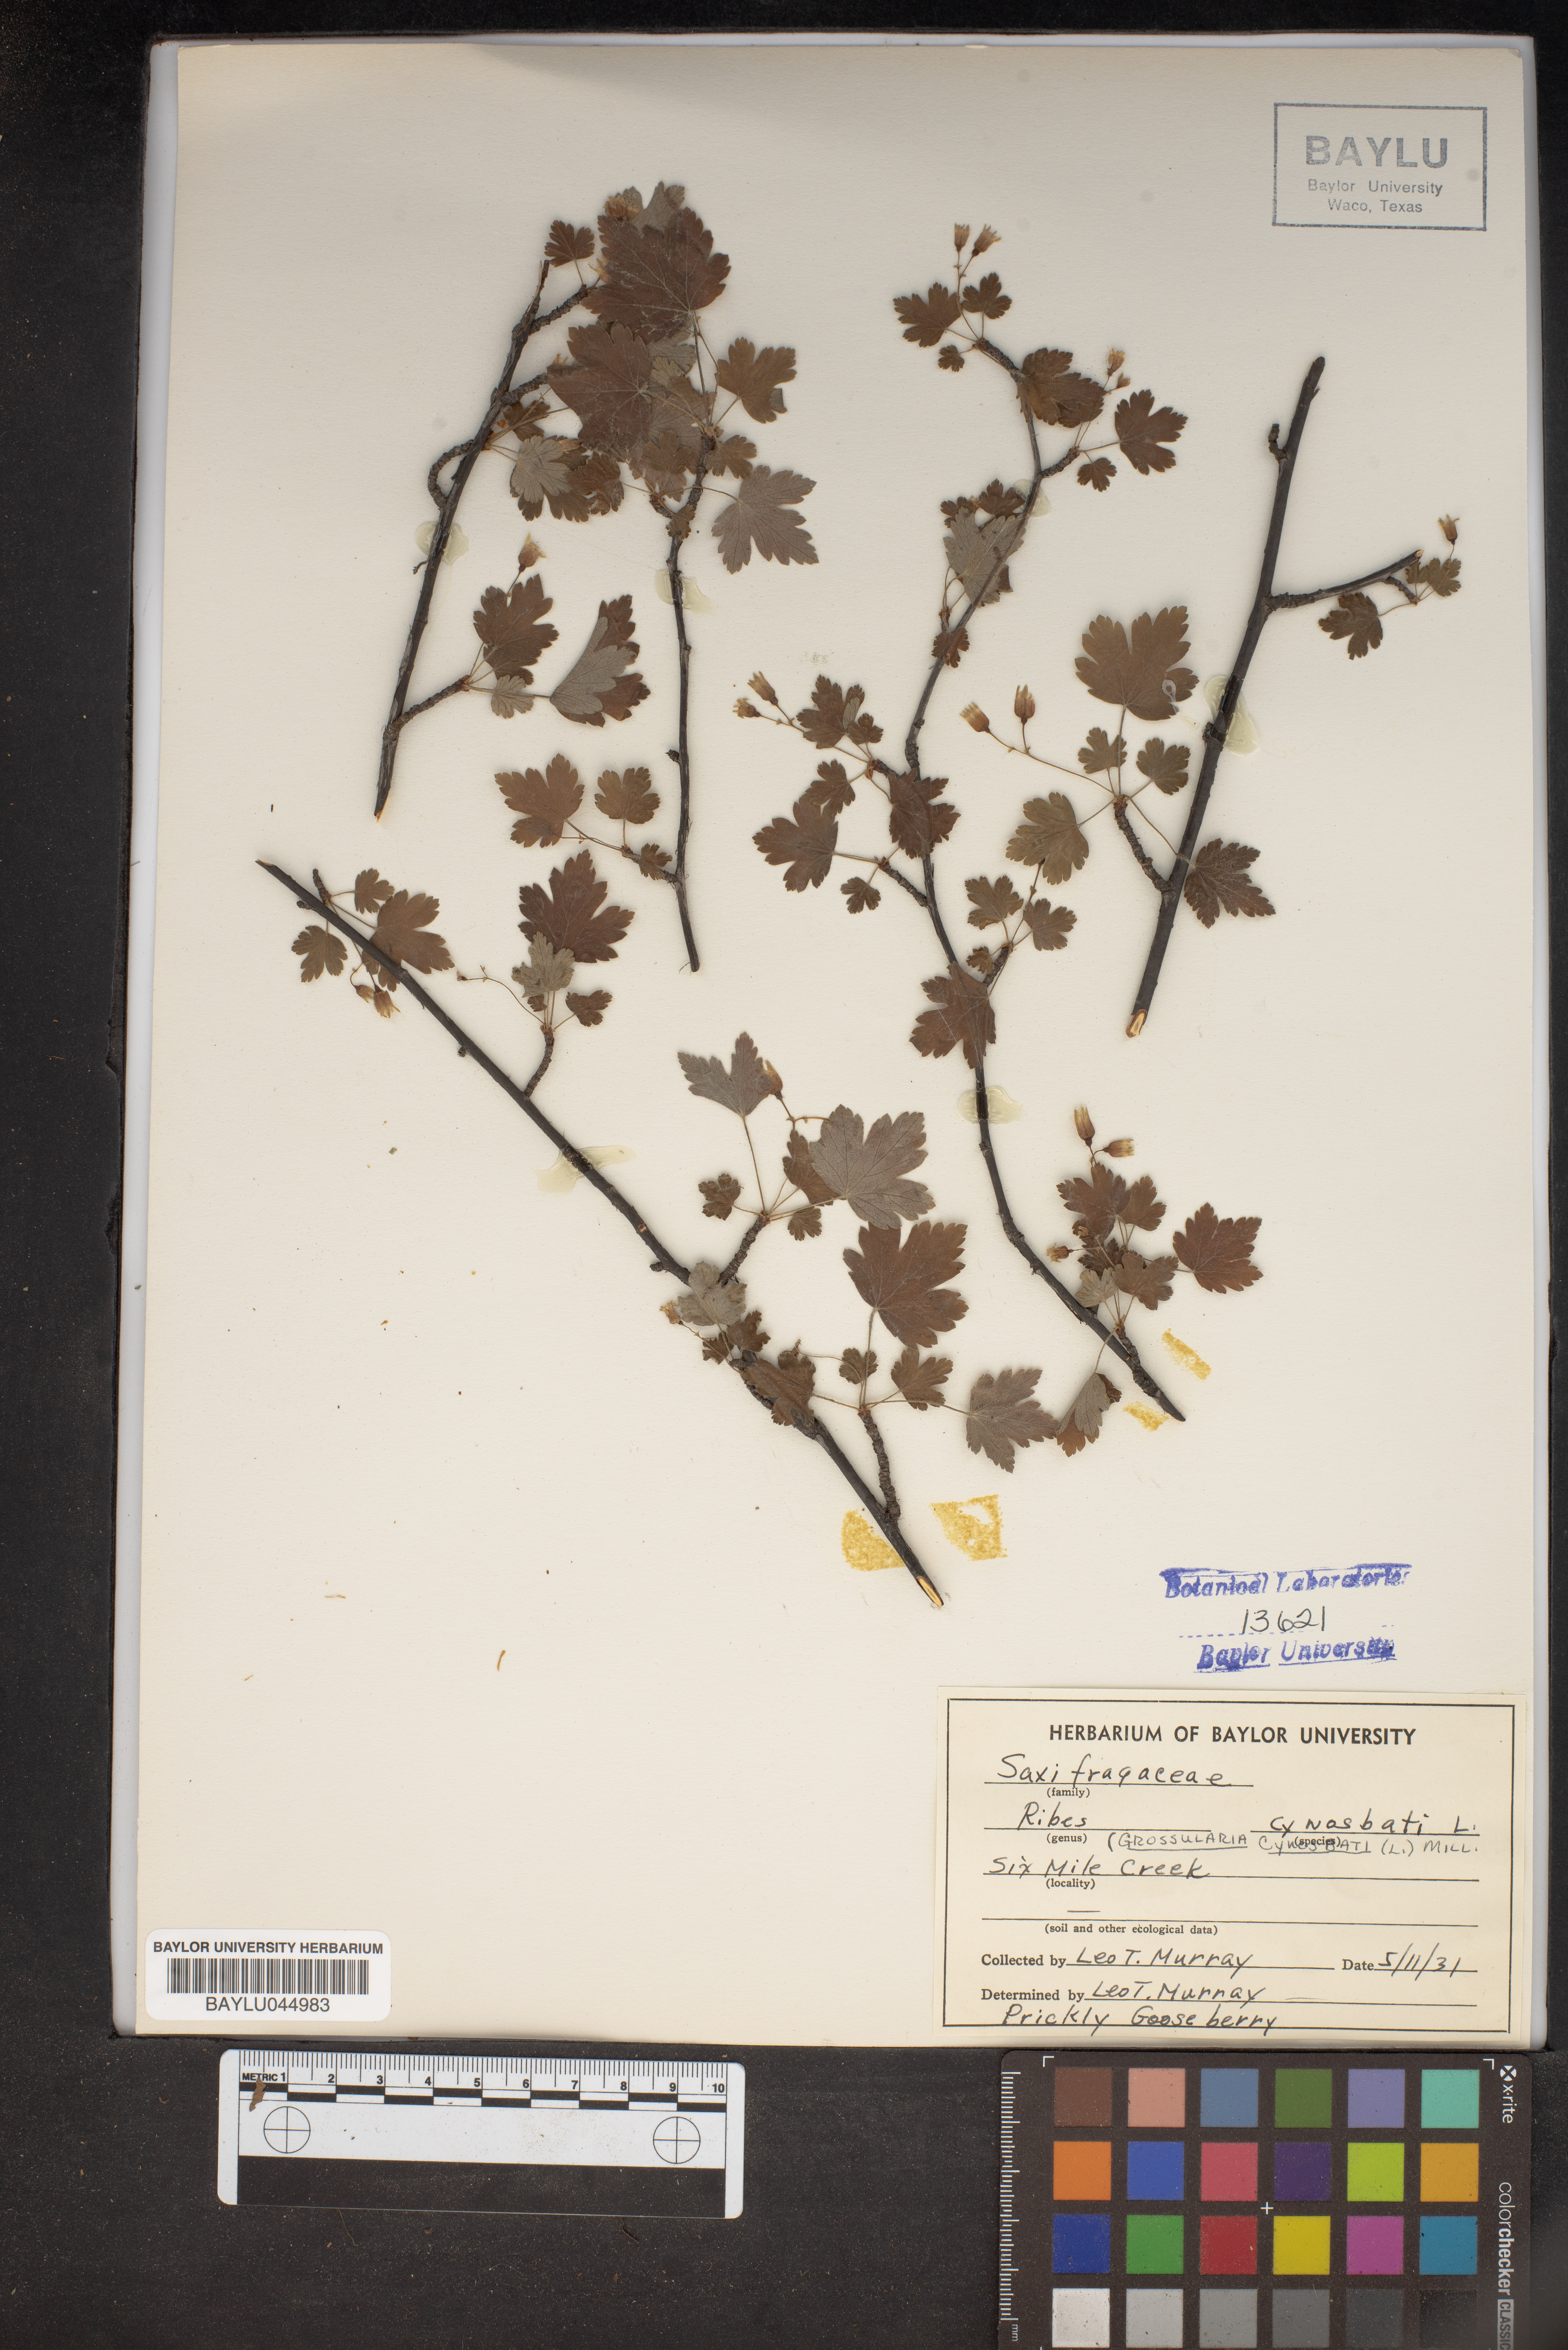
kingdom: Plantae
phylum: Tracheophyta
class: Magnoliopsida
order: Saxifragales
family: Grossulariaceae
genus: Ribes
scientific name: Ribes cynosbati
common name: American gooseberry
